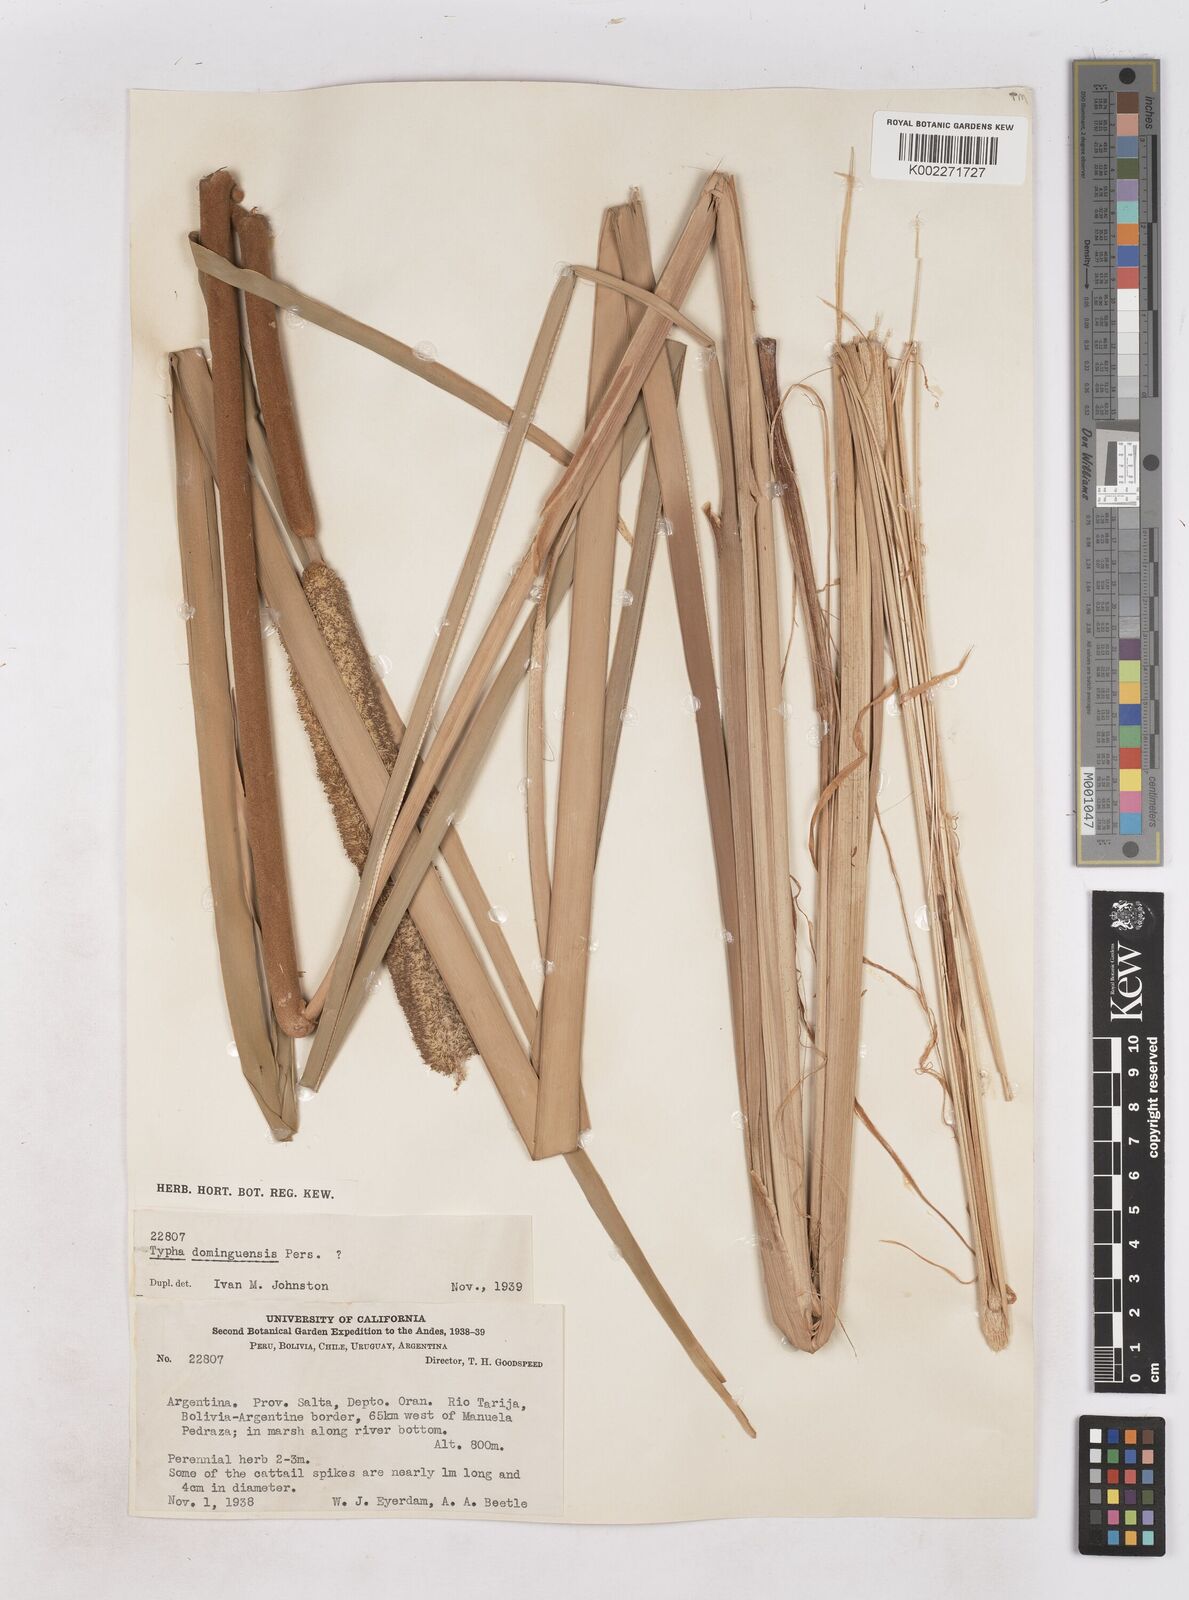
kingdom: Plantae
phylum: Tracheophyta
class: Liliopsida
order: Poales
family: Typhaceae
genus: Typha
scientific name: Typha domingensis
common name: Southern cattail
